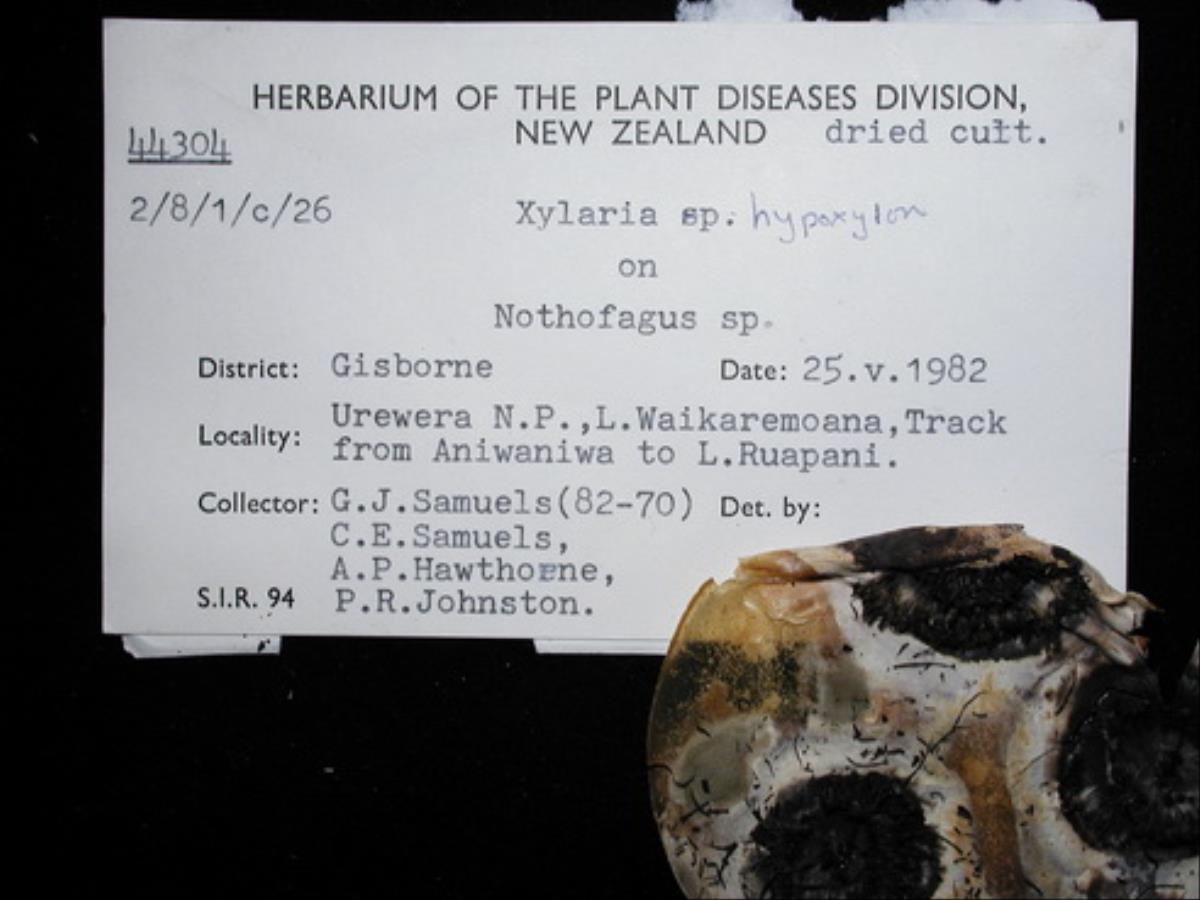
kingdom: Fungi
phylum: Ascomycota
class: Sordariomycetes
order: Xylariales
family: Xylariaceae
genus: Xylaria
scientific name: Xylaria hypoxylon
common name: Candle-snuff fungus
